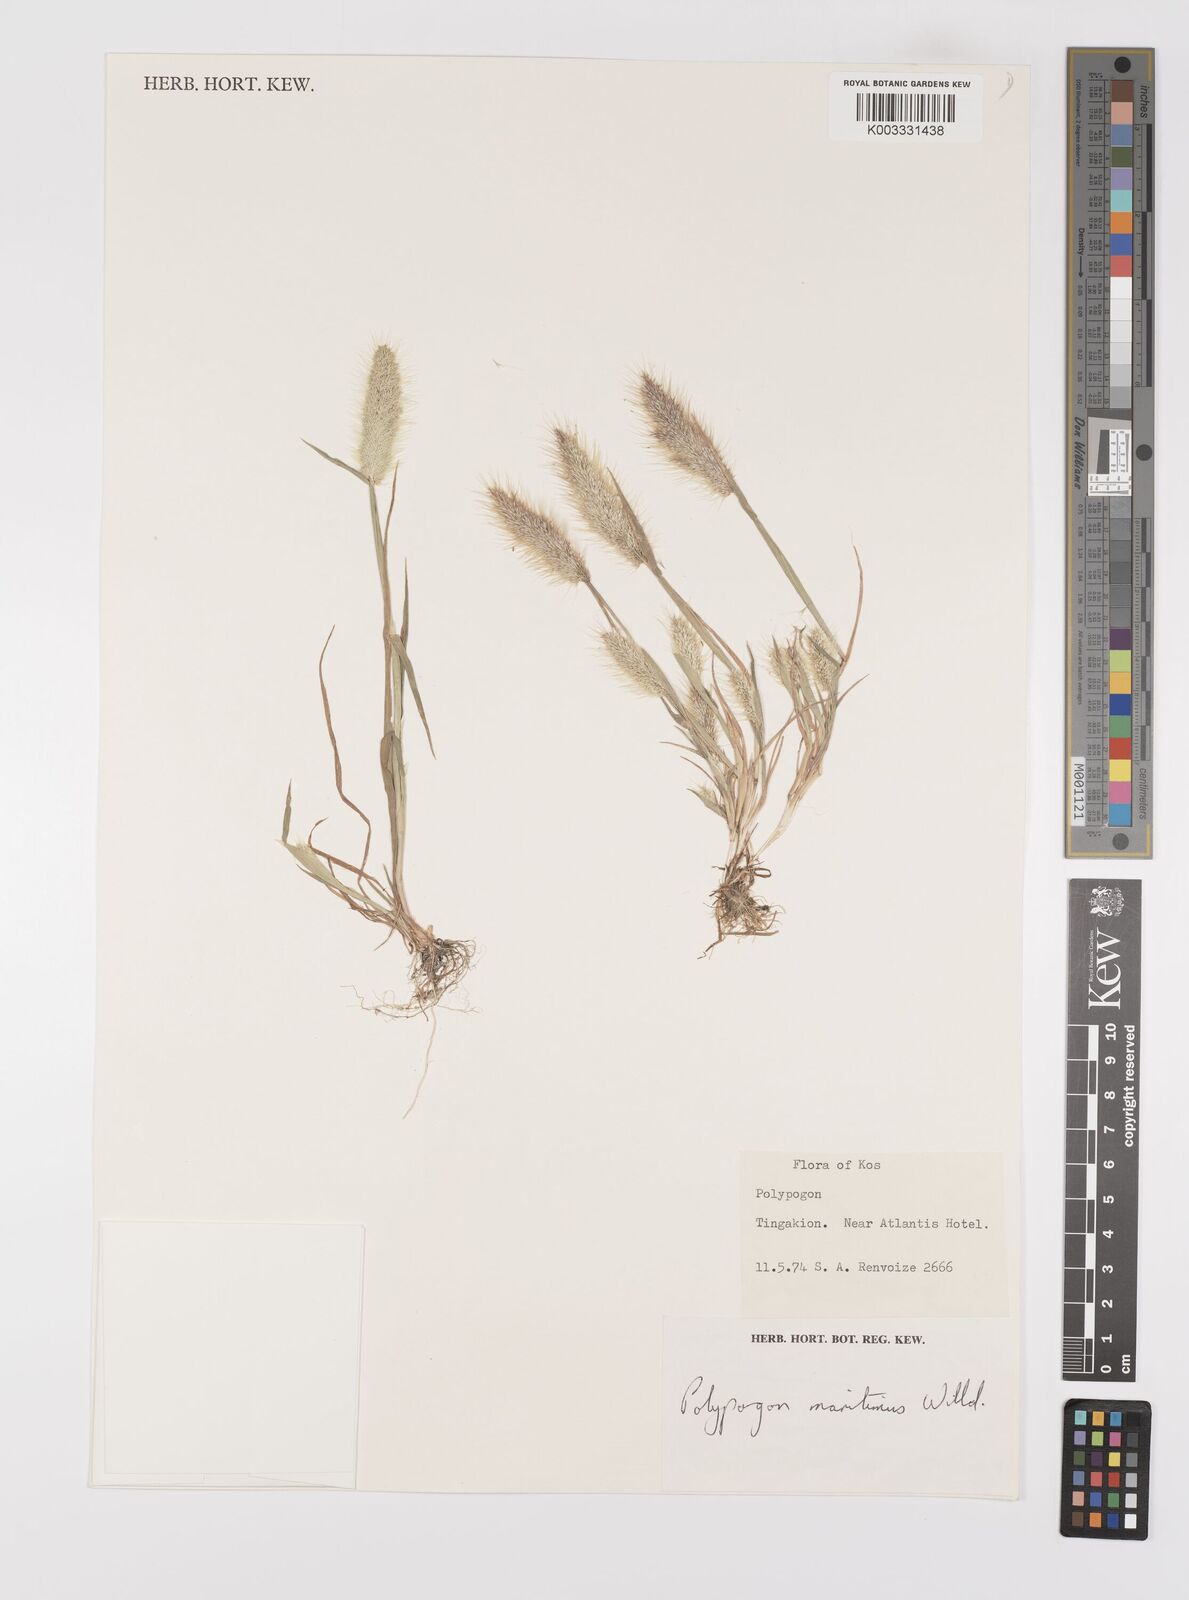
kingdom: Plantae
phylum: Tracheophyta
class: Liliopsida
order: Poales
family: Poaceae
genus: Polypogon
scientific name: Polypogon maritimus
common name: Mediterranean rabbitsfoot grass
